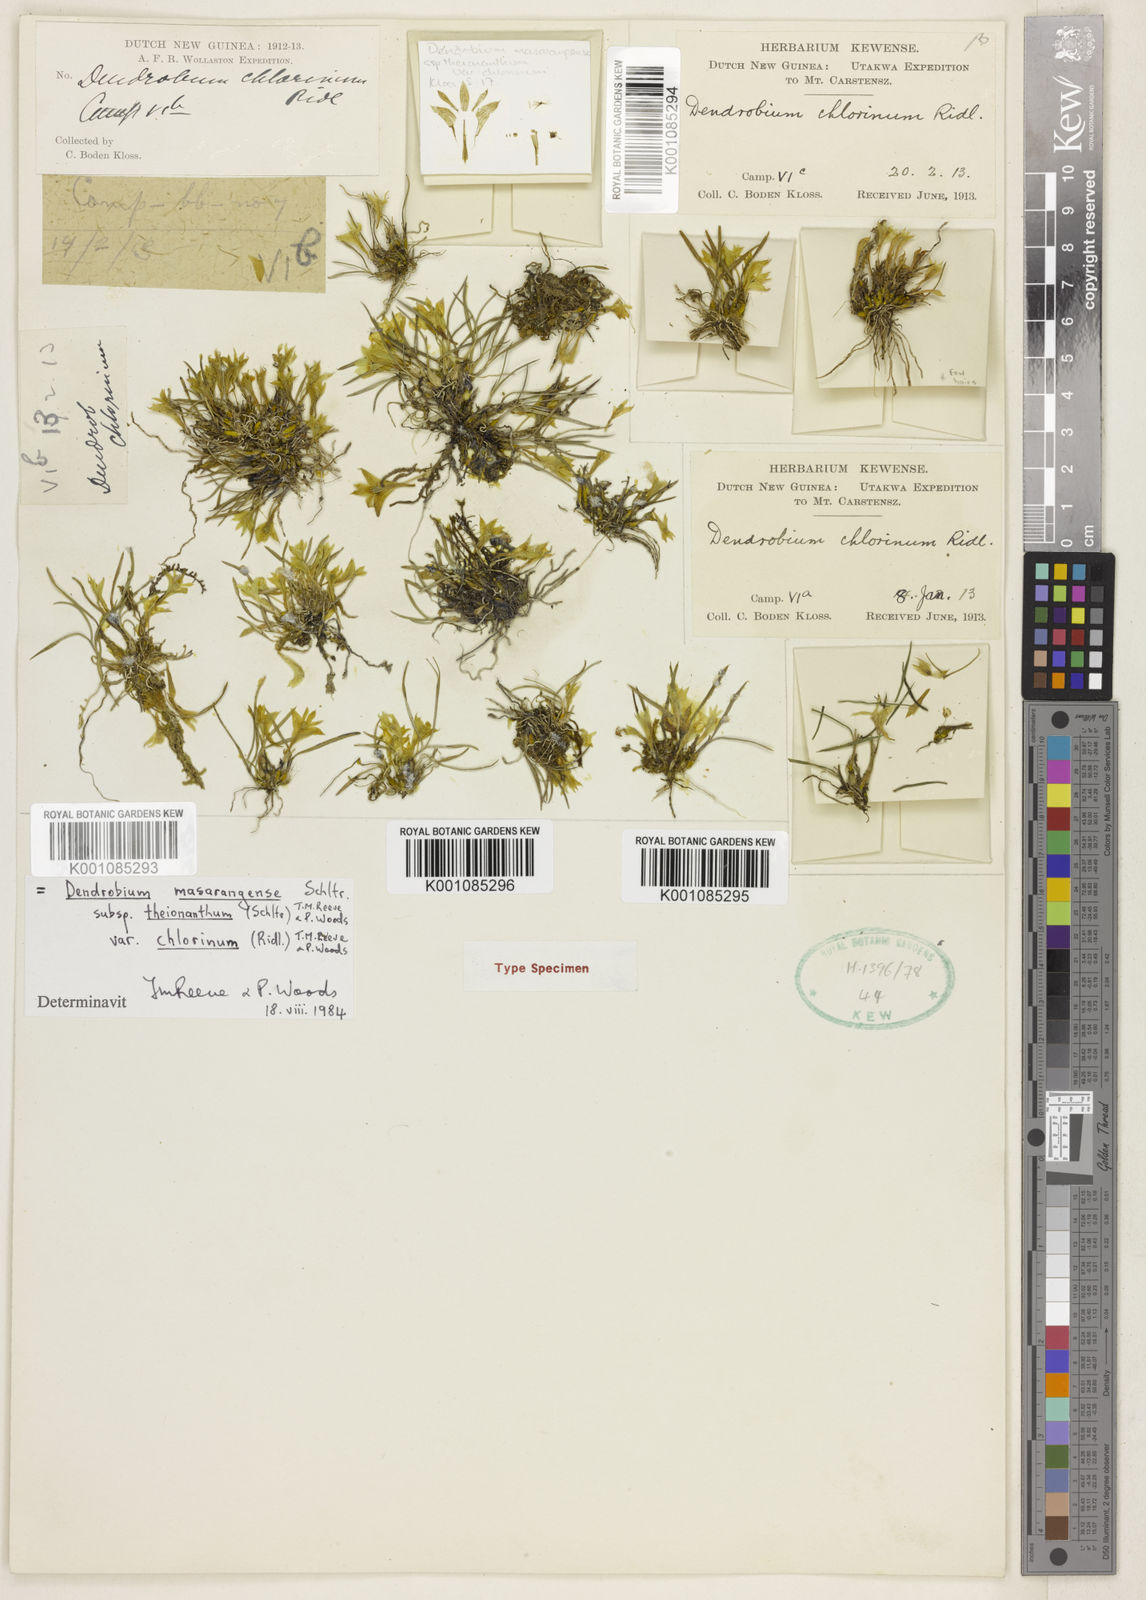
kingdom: Plantae
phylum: Tracheophyta
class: Liliopsida
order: Asparagales
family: Orchidaceae
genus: Dendrobium
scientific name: Dendrobium masarangense
